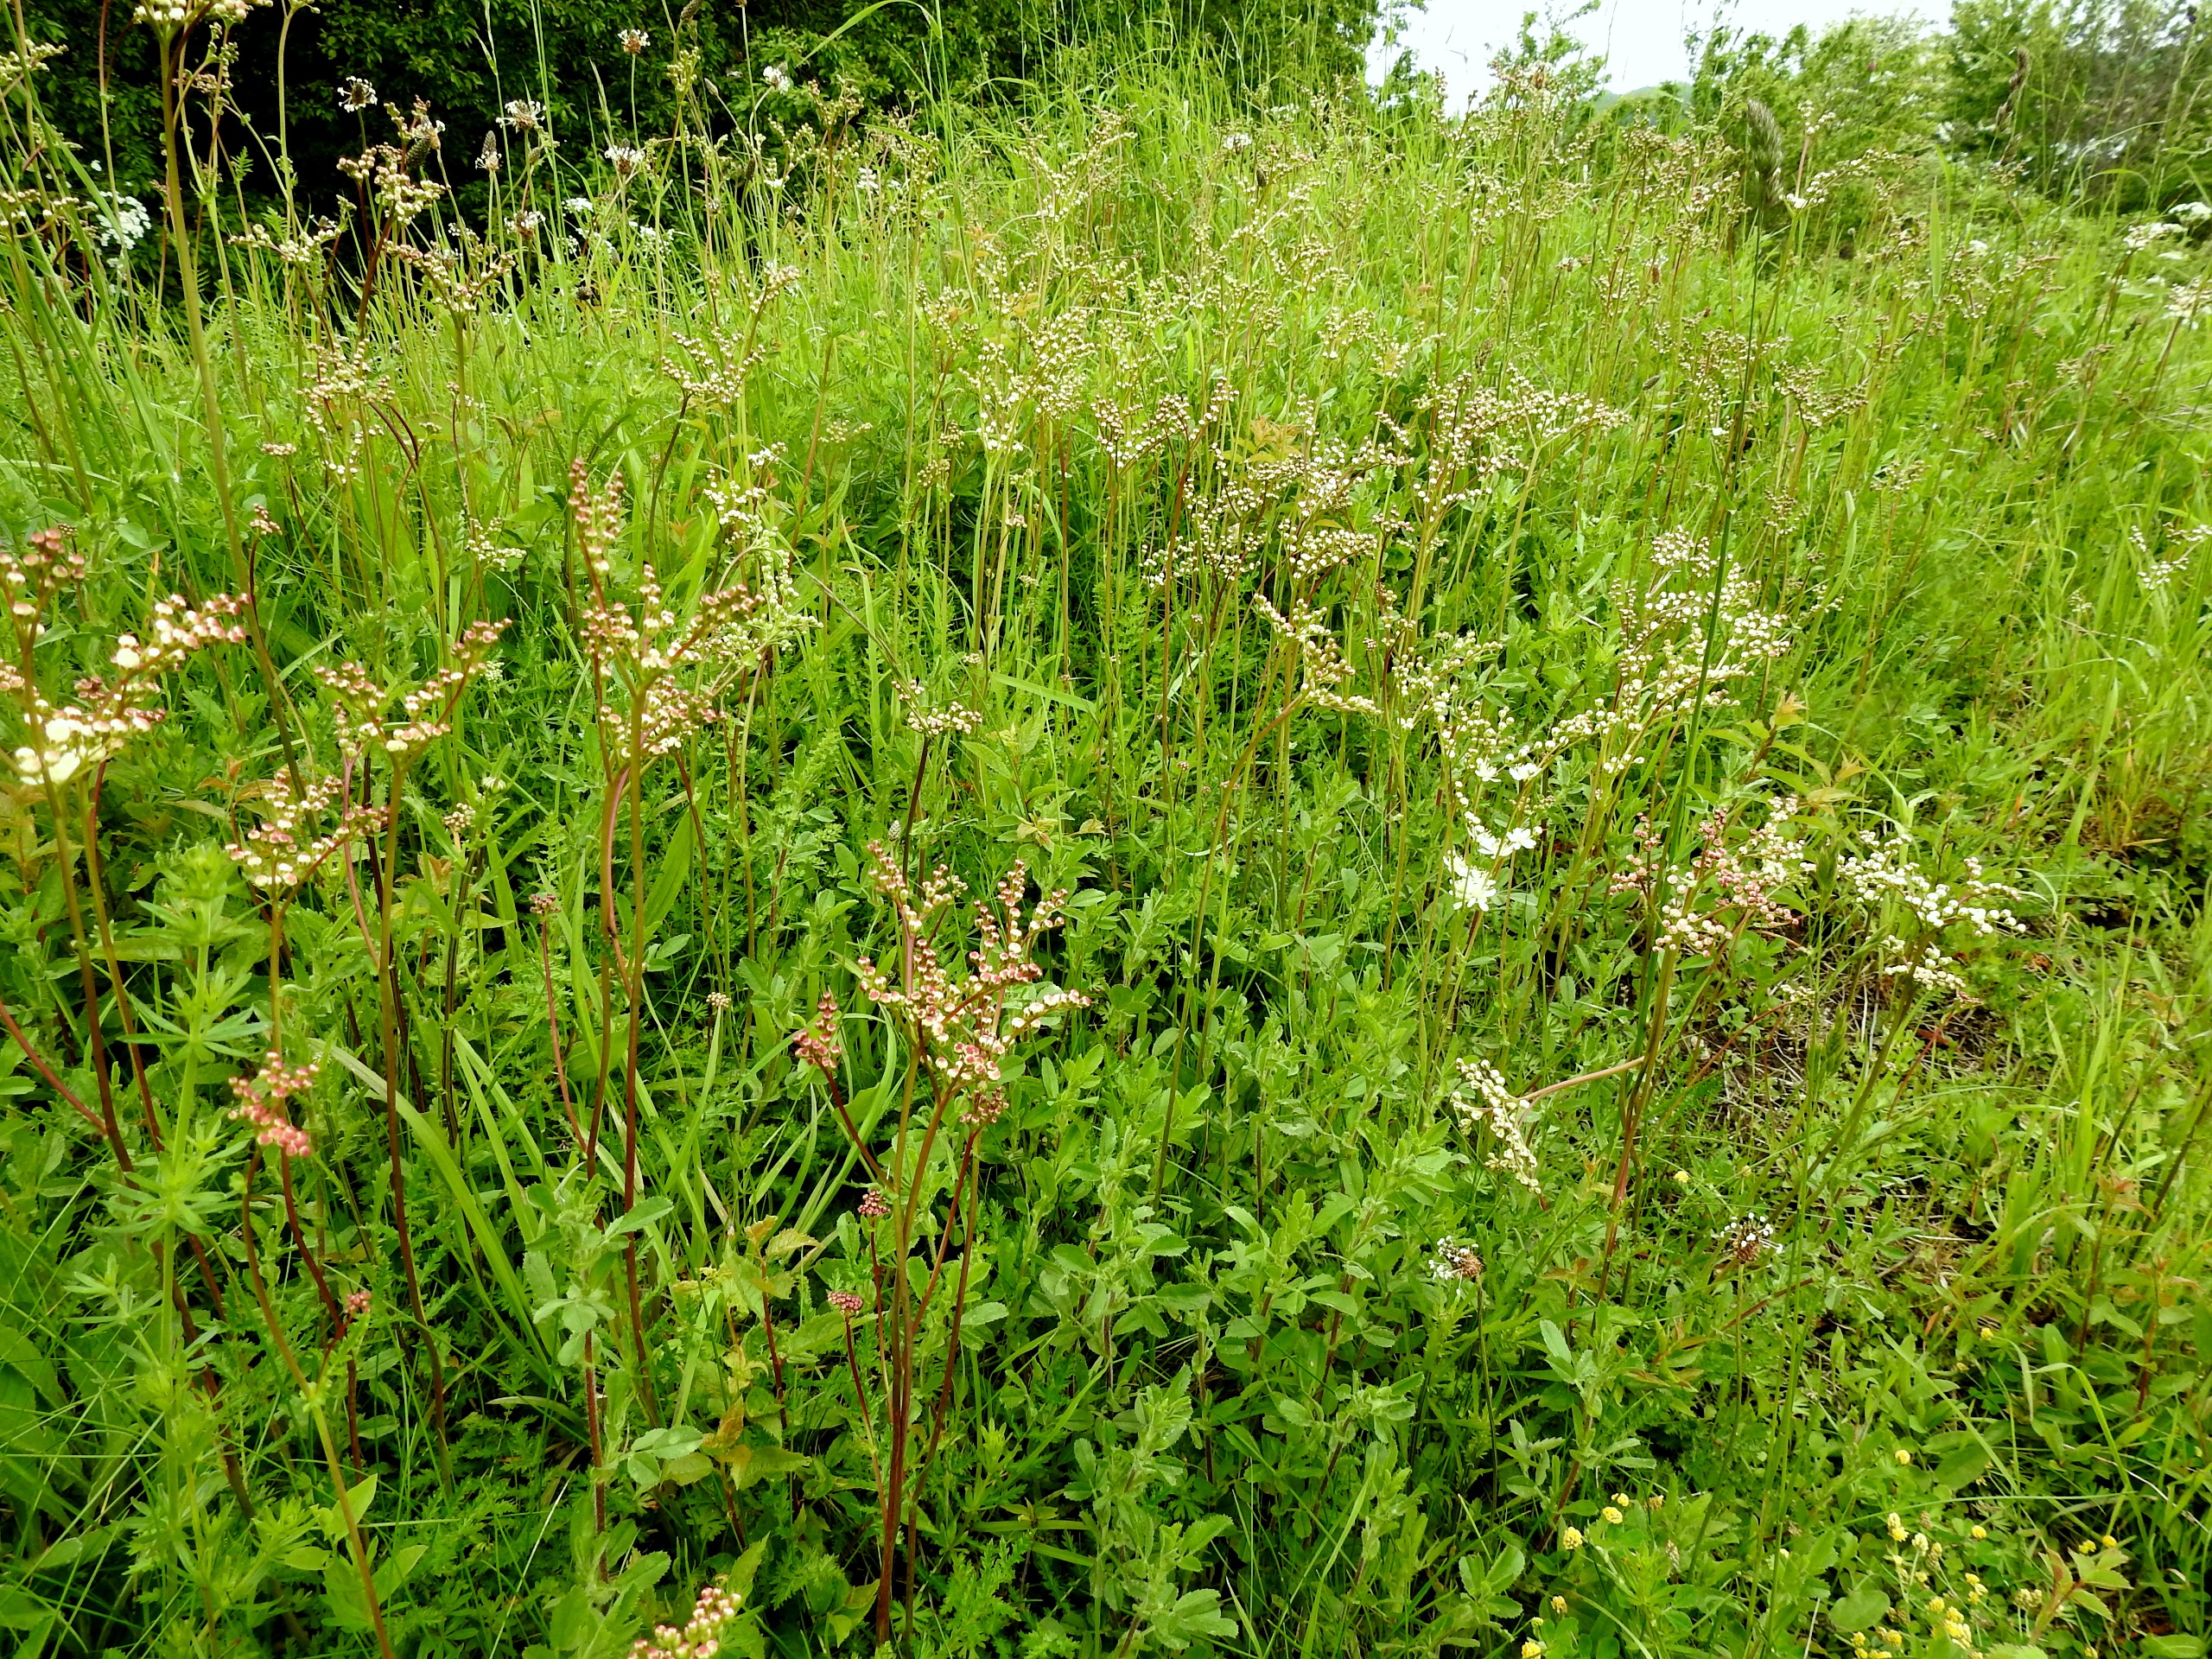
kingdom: Plantae
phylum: Tracheophyta
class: Magnoliopsida
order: Rosales
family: Rosaceae
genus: Filipendula
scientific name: Filipendula vulgaris
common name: Knoldet mjødurt
